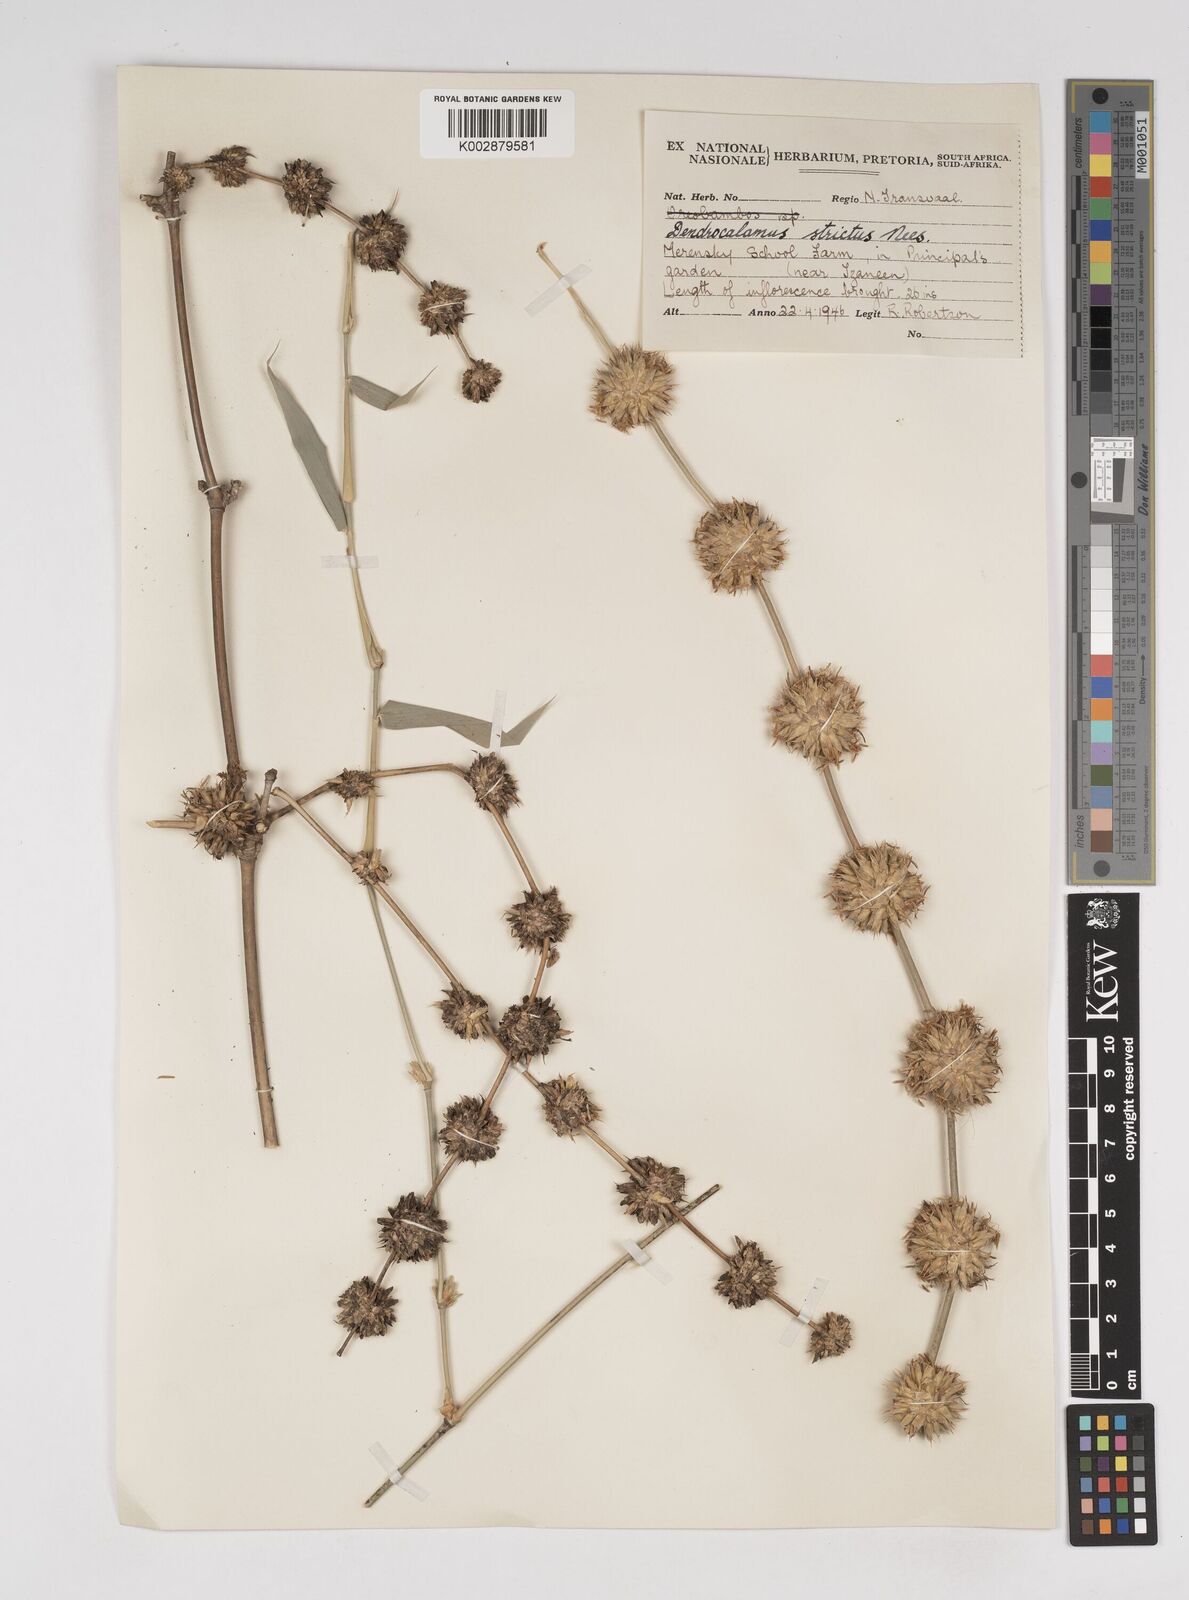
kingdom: Plantae
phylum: Tracheophyta
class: Liliopsida
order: Poales
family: Poaceae
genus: Dendrocalamus
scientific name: Dendrocalamus strictus
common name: Male bamboo
